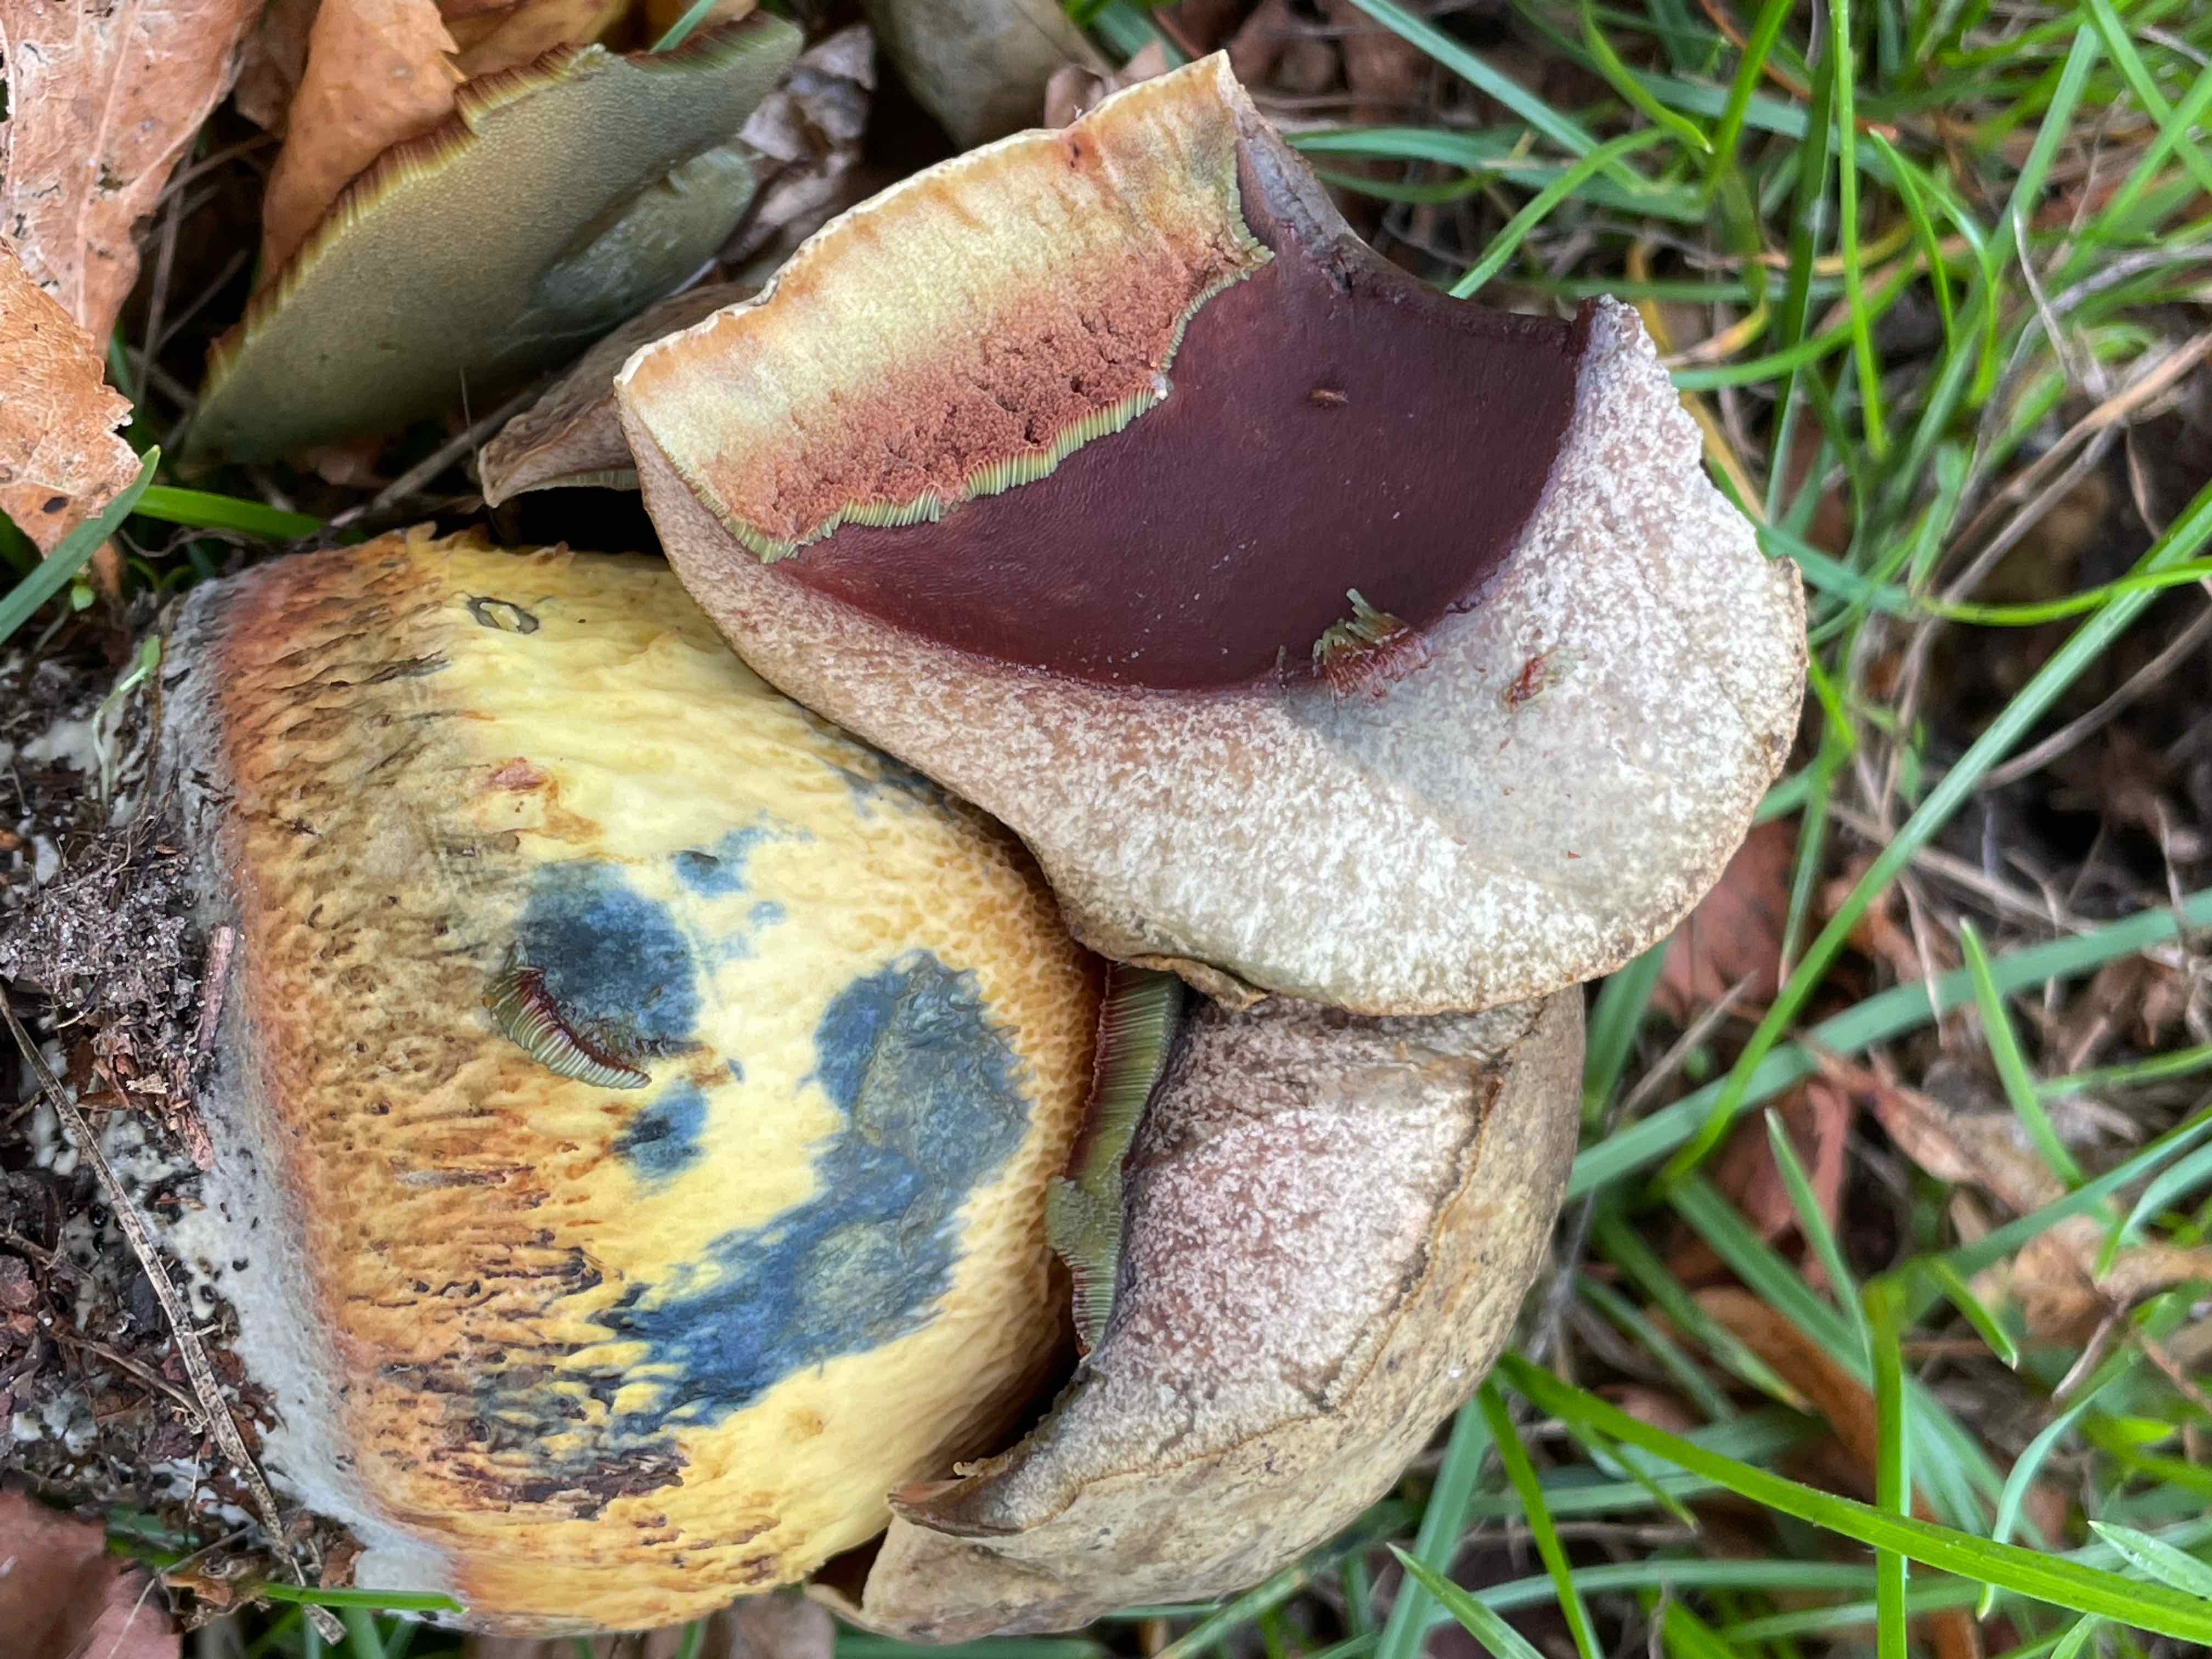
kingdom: Fungi
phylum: Basidiomycota
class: Agaricomycetes
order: Boletales
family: Boletaceae
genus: Suillellus
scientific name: Suillellus luridus
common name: netstokket indigorørhat
